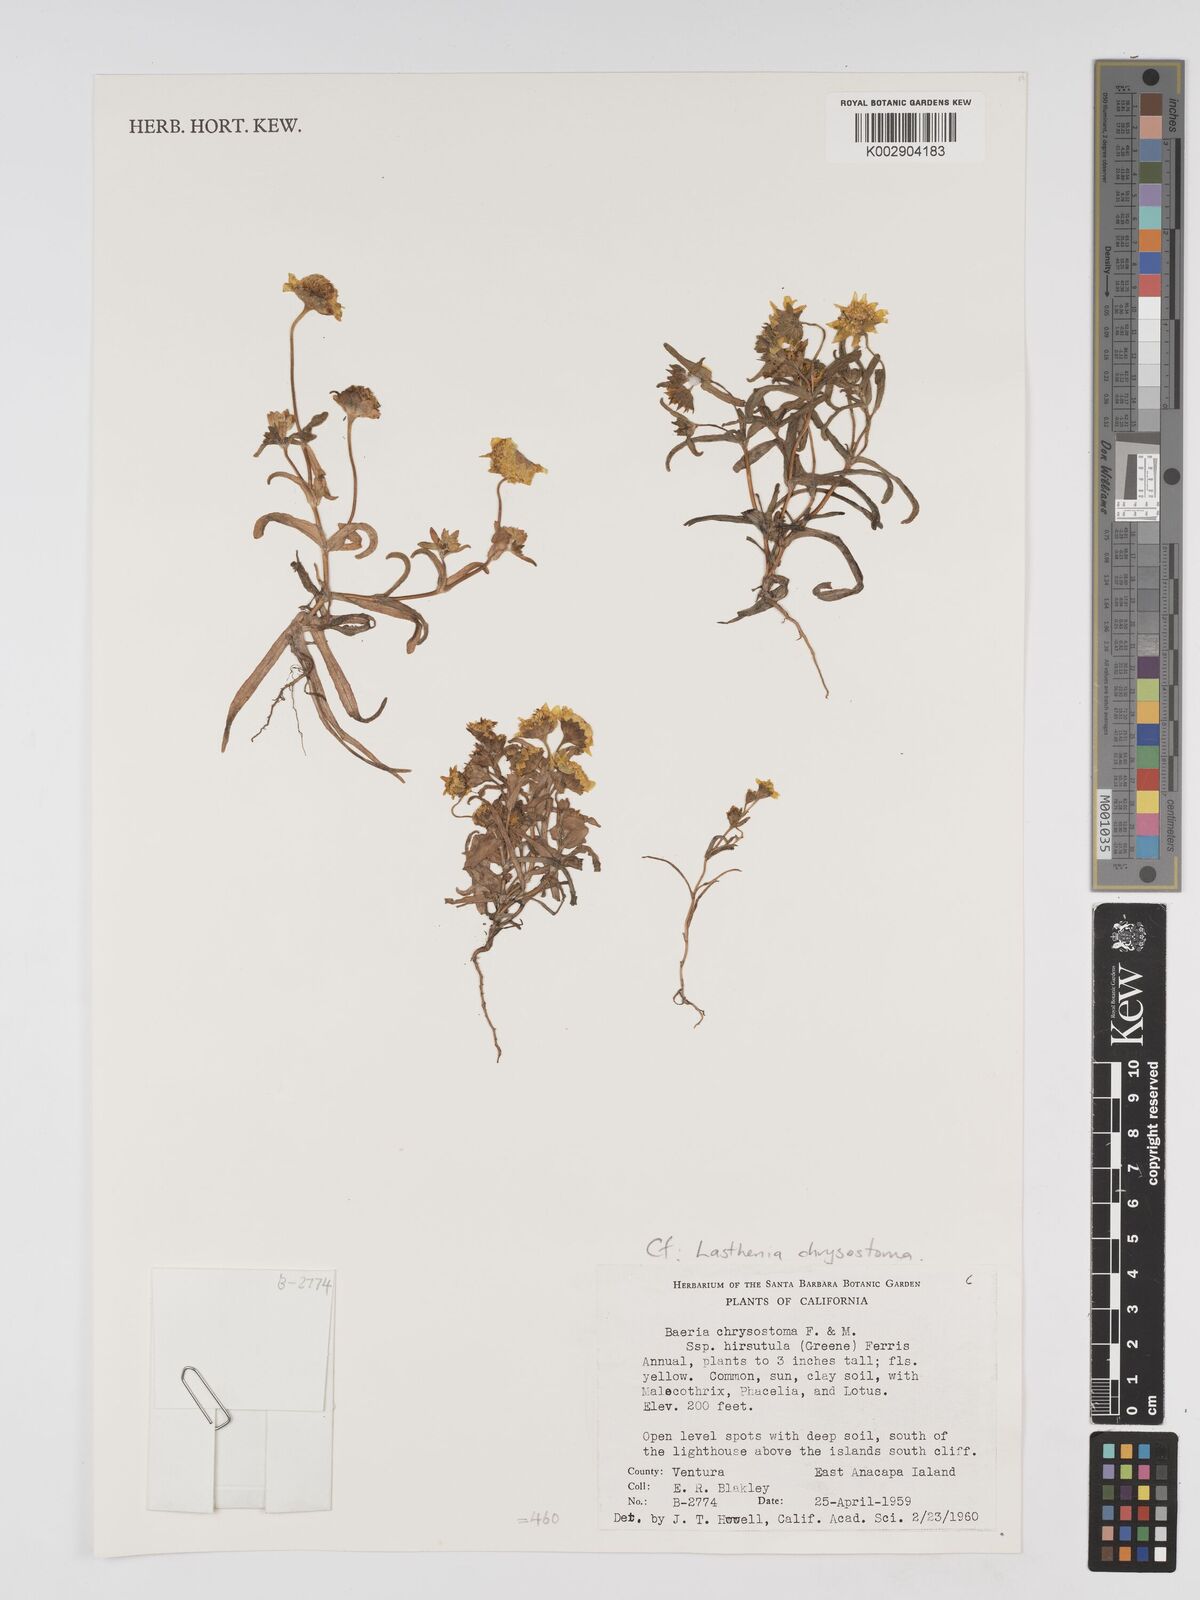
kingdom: Plantae
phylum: Tracheophyta
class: Magnoliopsida
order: Asterales
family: Asteraceae
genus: Lasthenia
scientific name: Lasthenia californica
